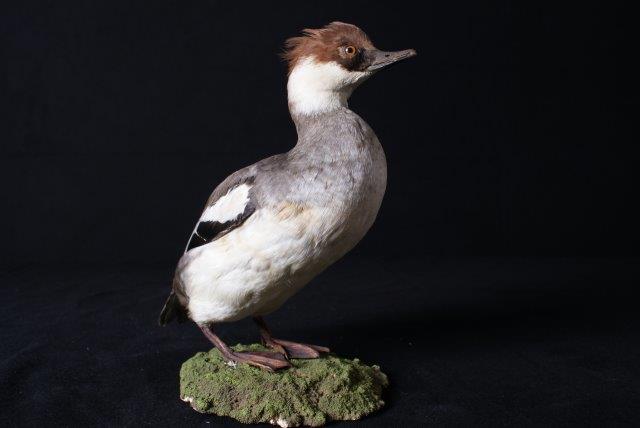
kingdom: Animalia
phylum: Chordata
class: Aves
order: Anseriformes
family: Anatidae
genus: Mergellus
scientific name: Mergellus albellus
